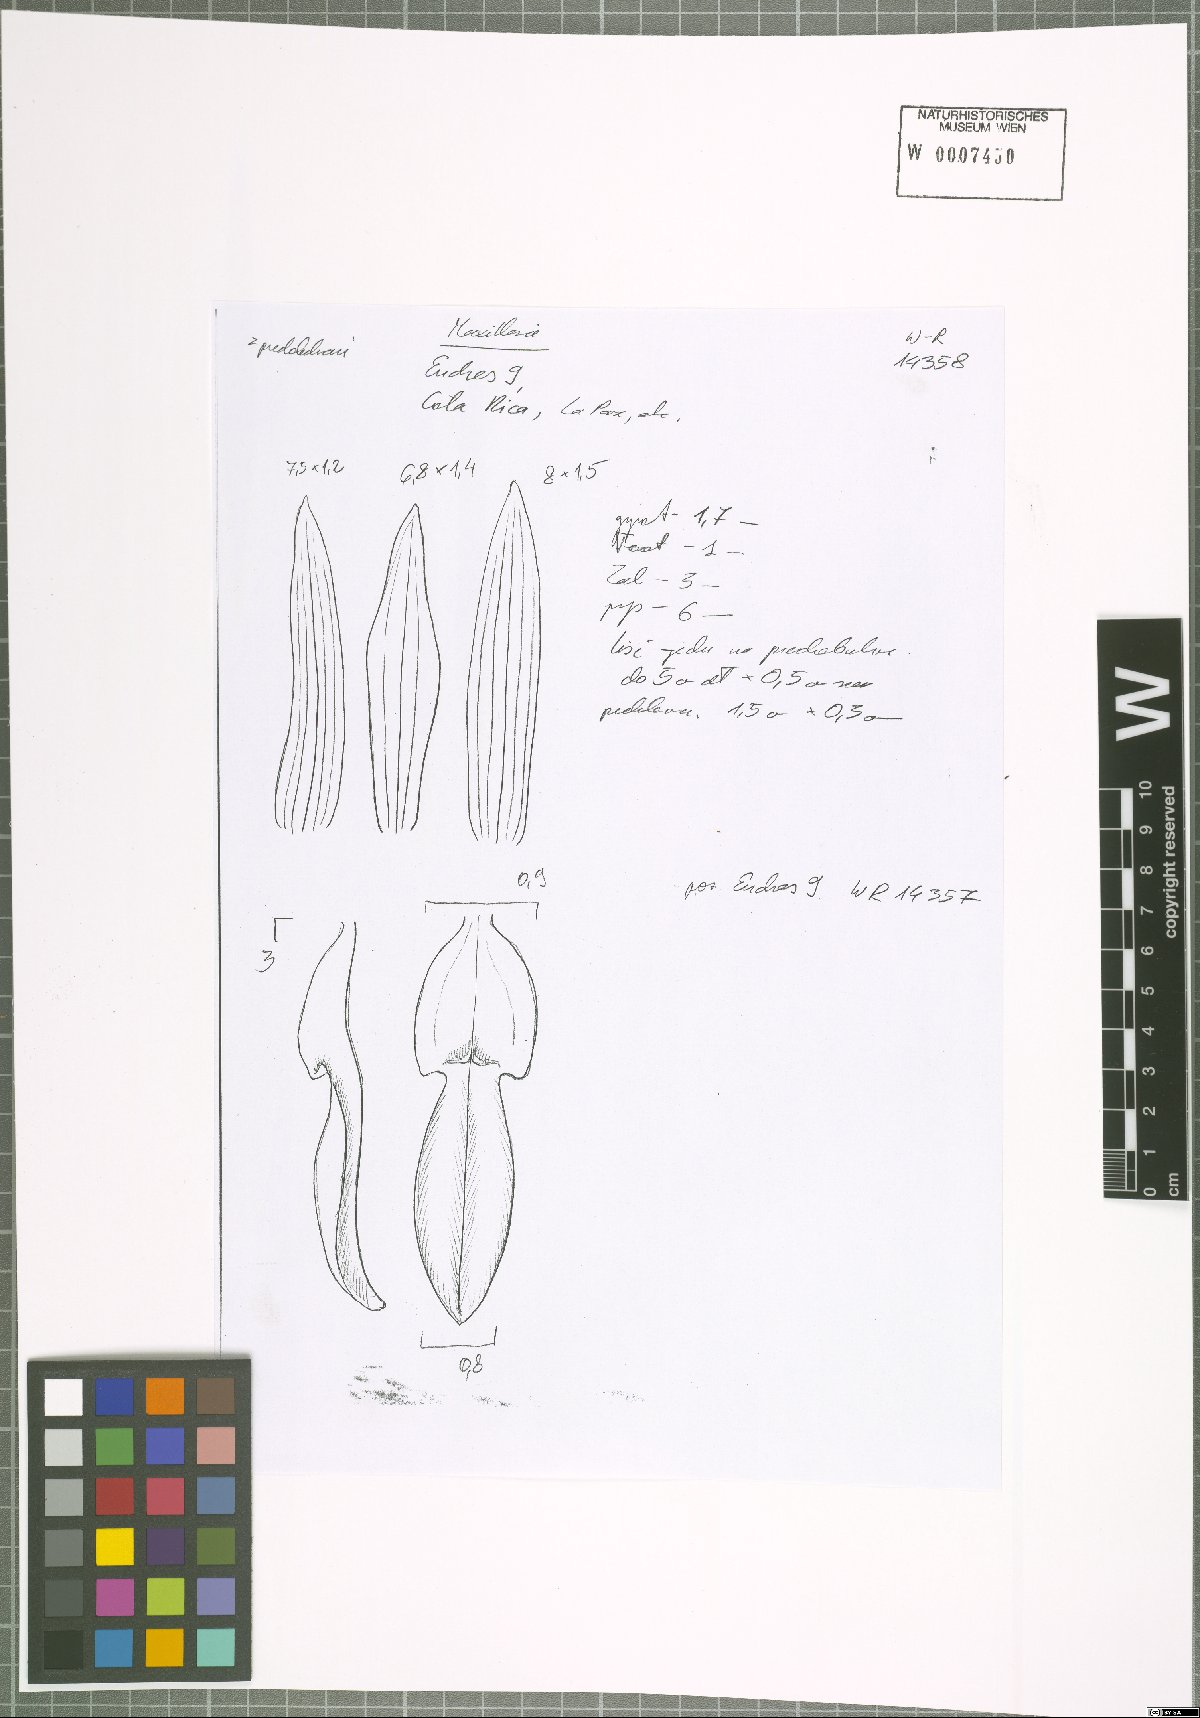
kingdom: Plantae
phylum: Tracheophyta
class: Liliopsida
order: Asparagales
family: Orchidaceae
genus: Maxillaria
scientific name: Maxillaria
